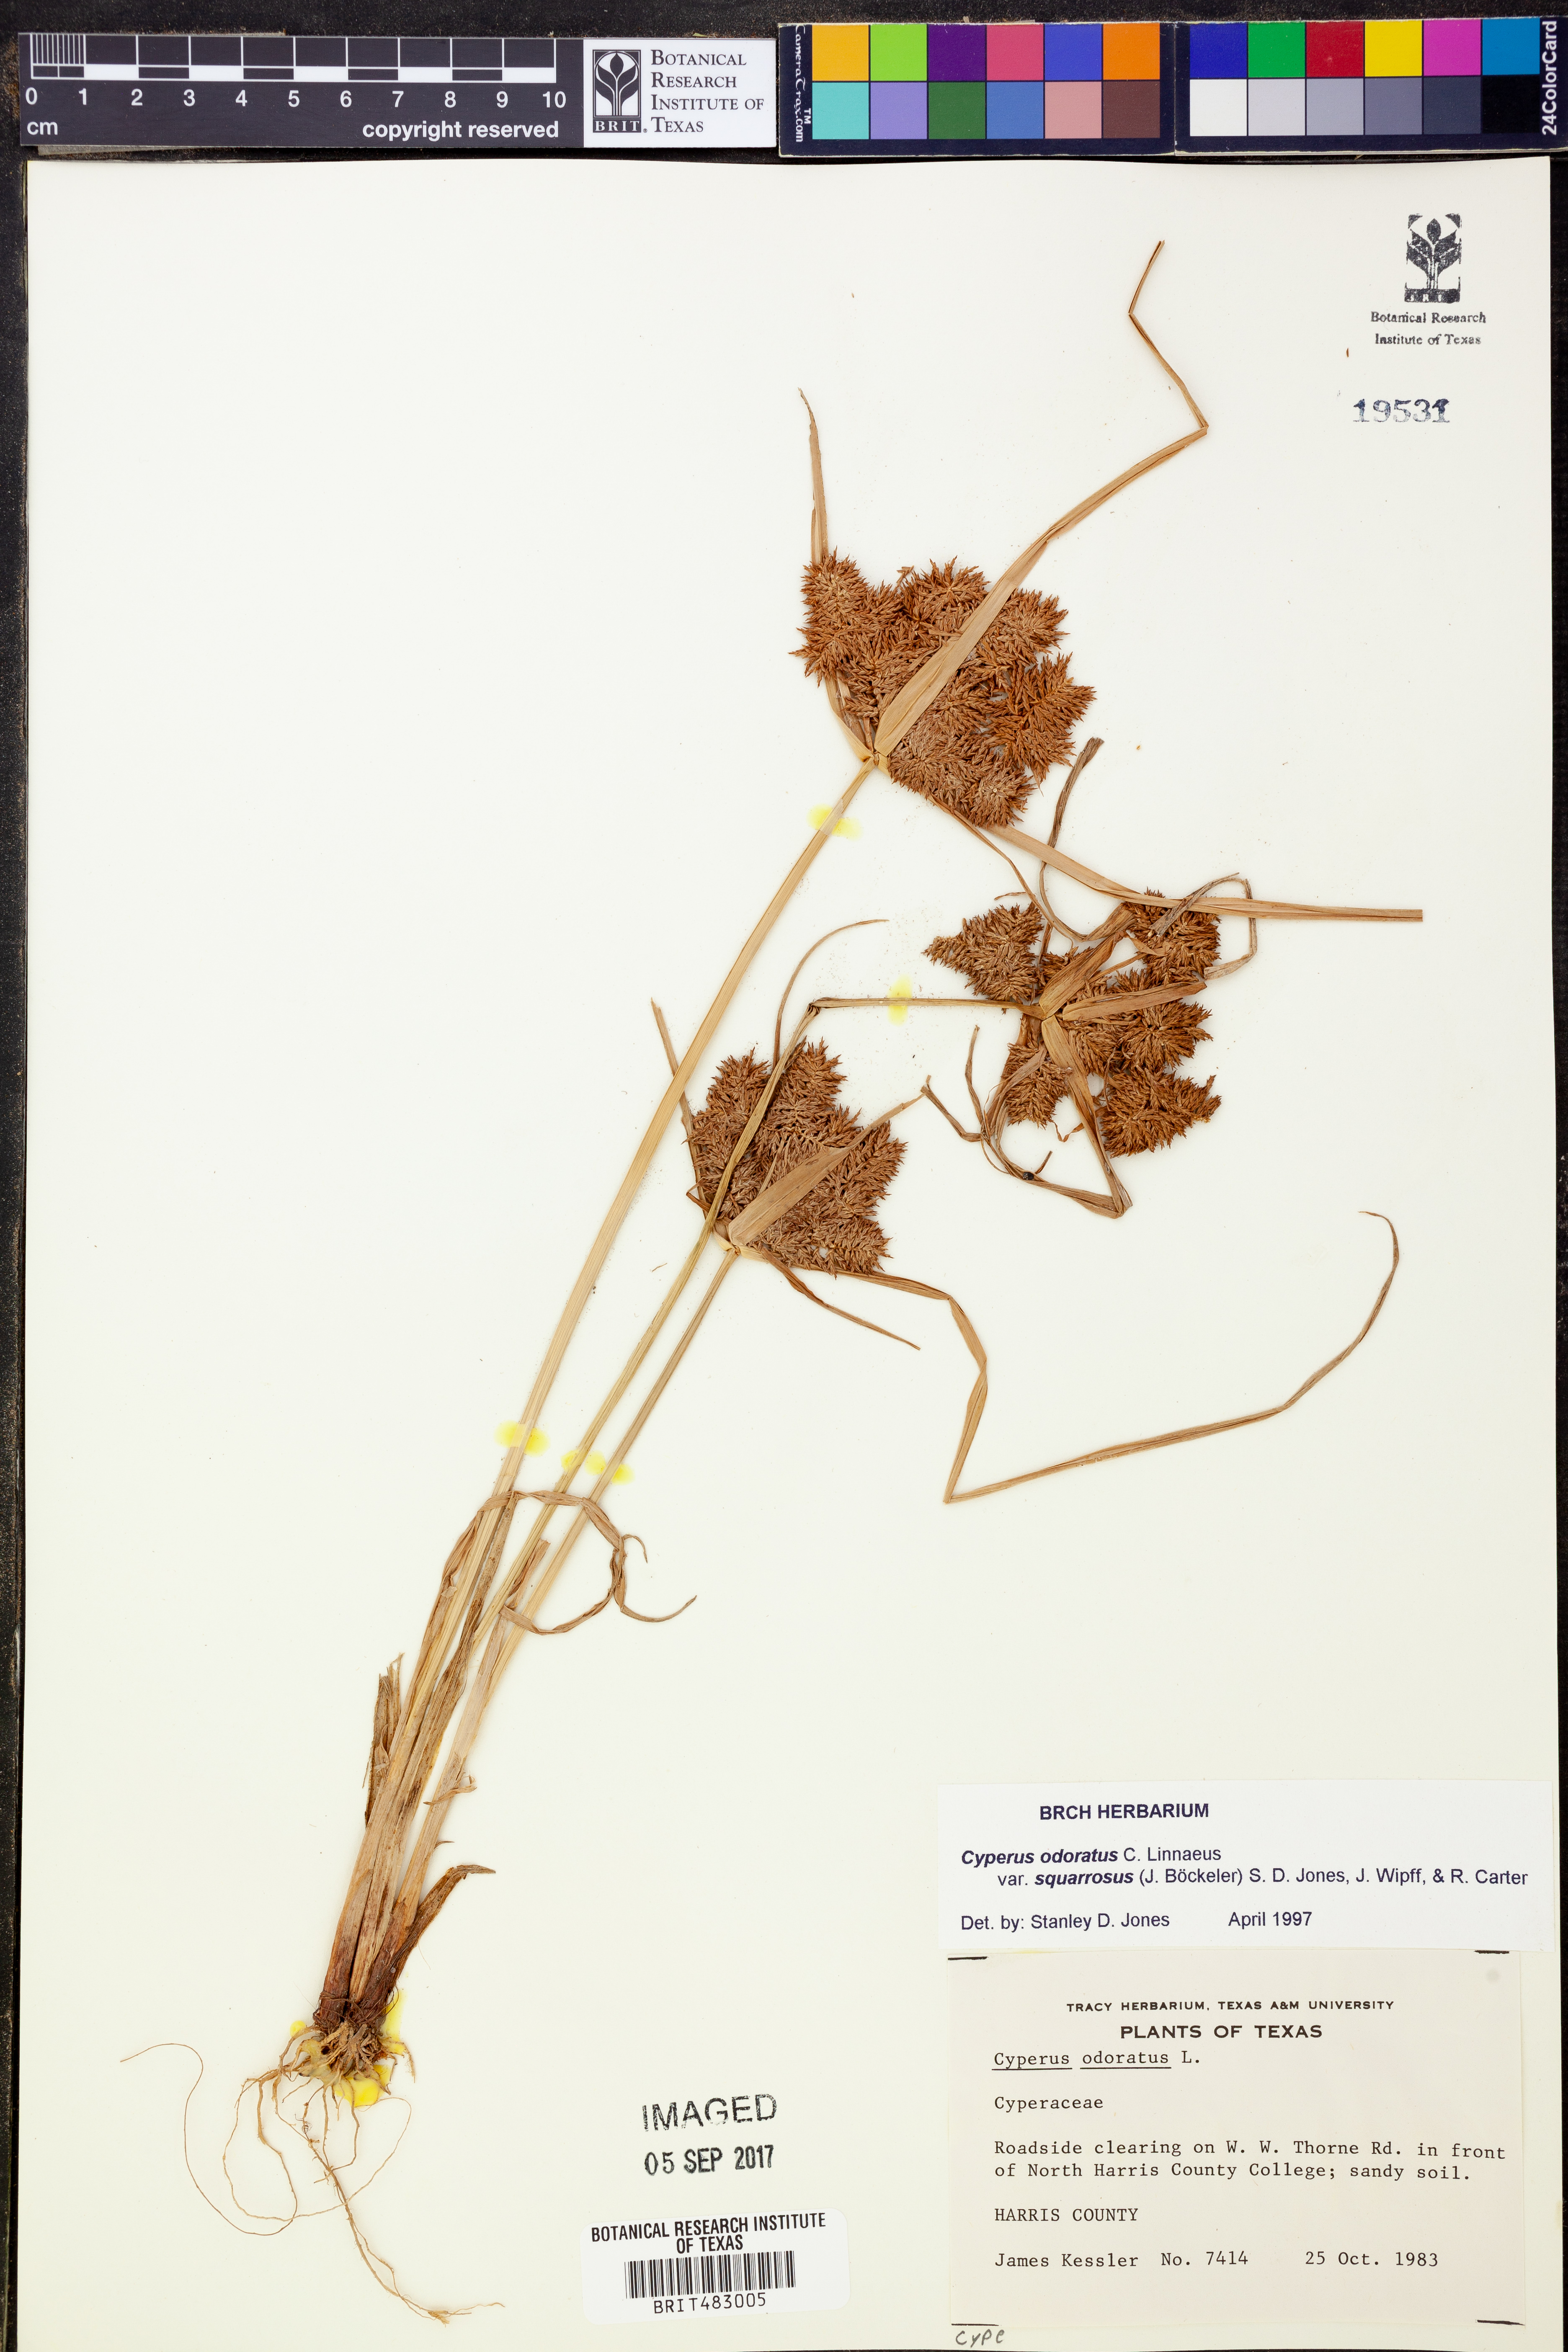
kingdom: Plantae
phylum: Tracheophyta
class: Liliopsida
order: Poales
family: Cyperaceae
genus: Cyperus
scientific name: Cyperus odoratus
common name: Fragrant flatsedge
